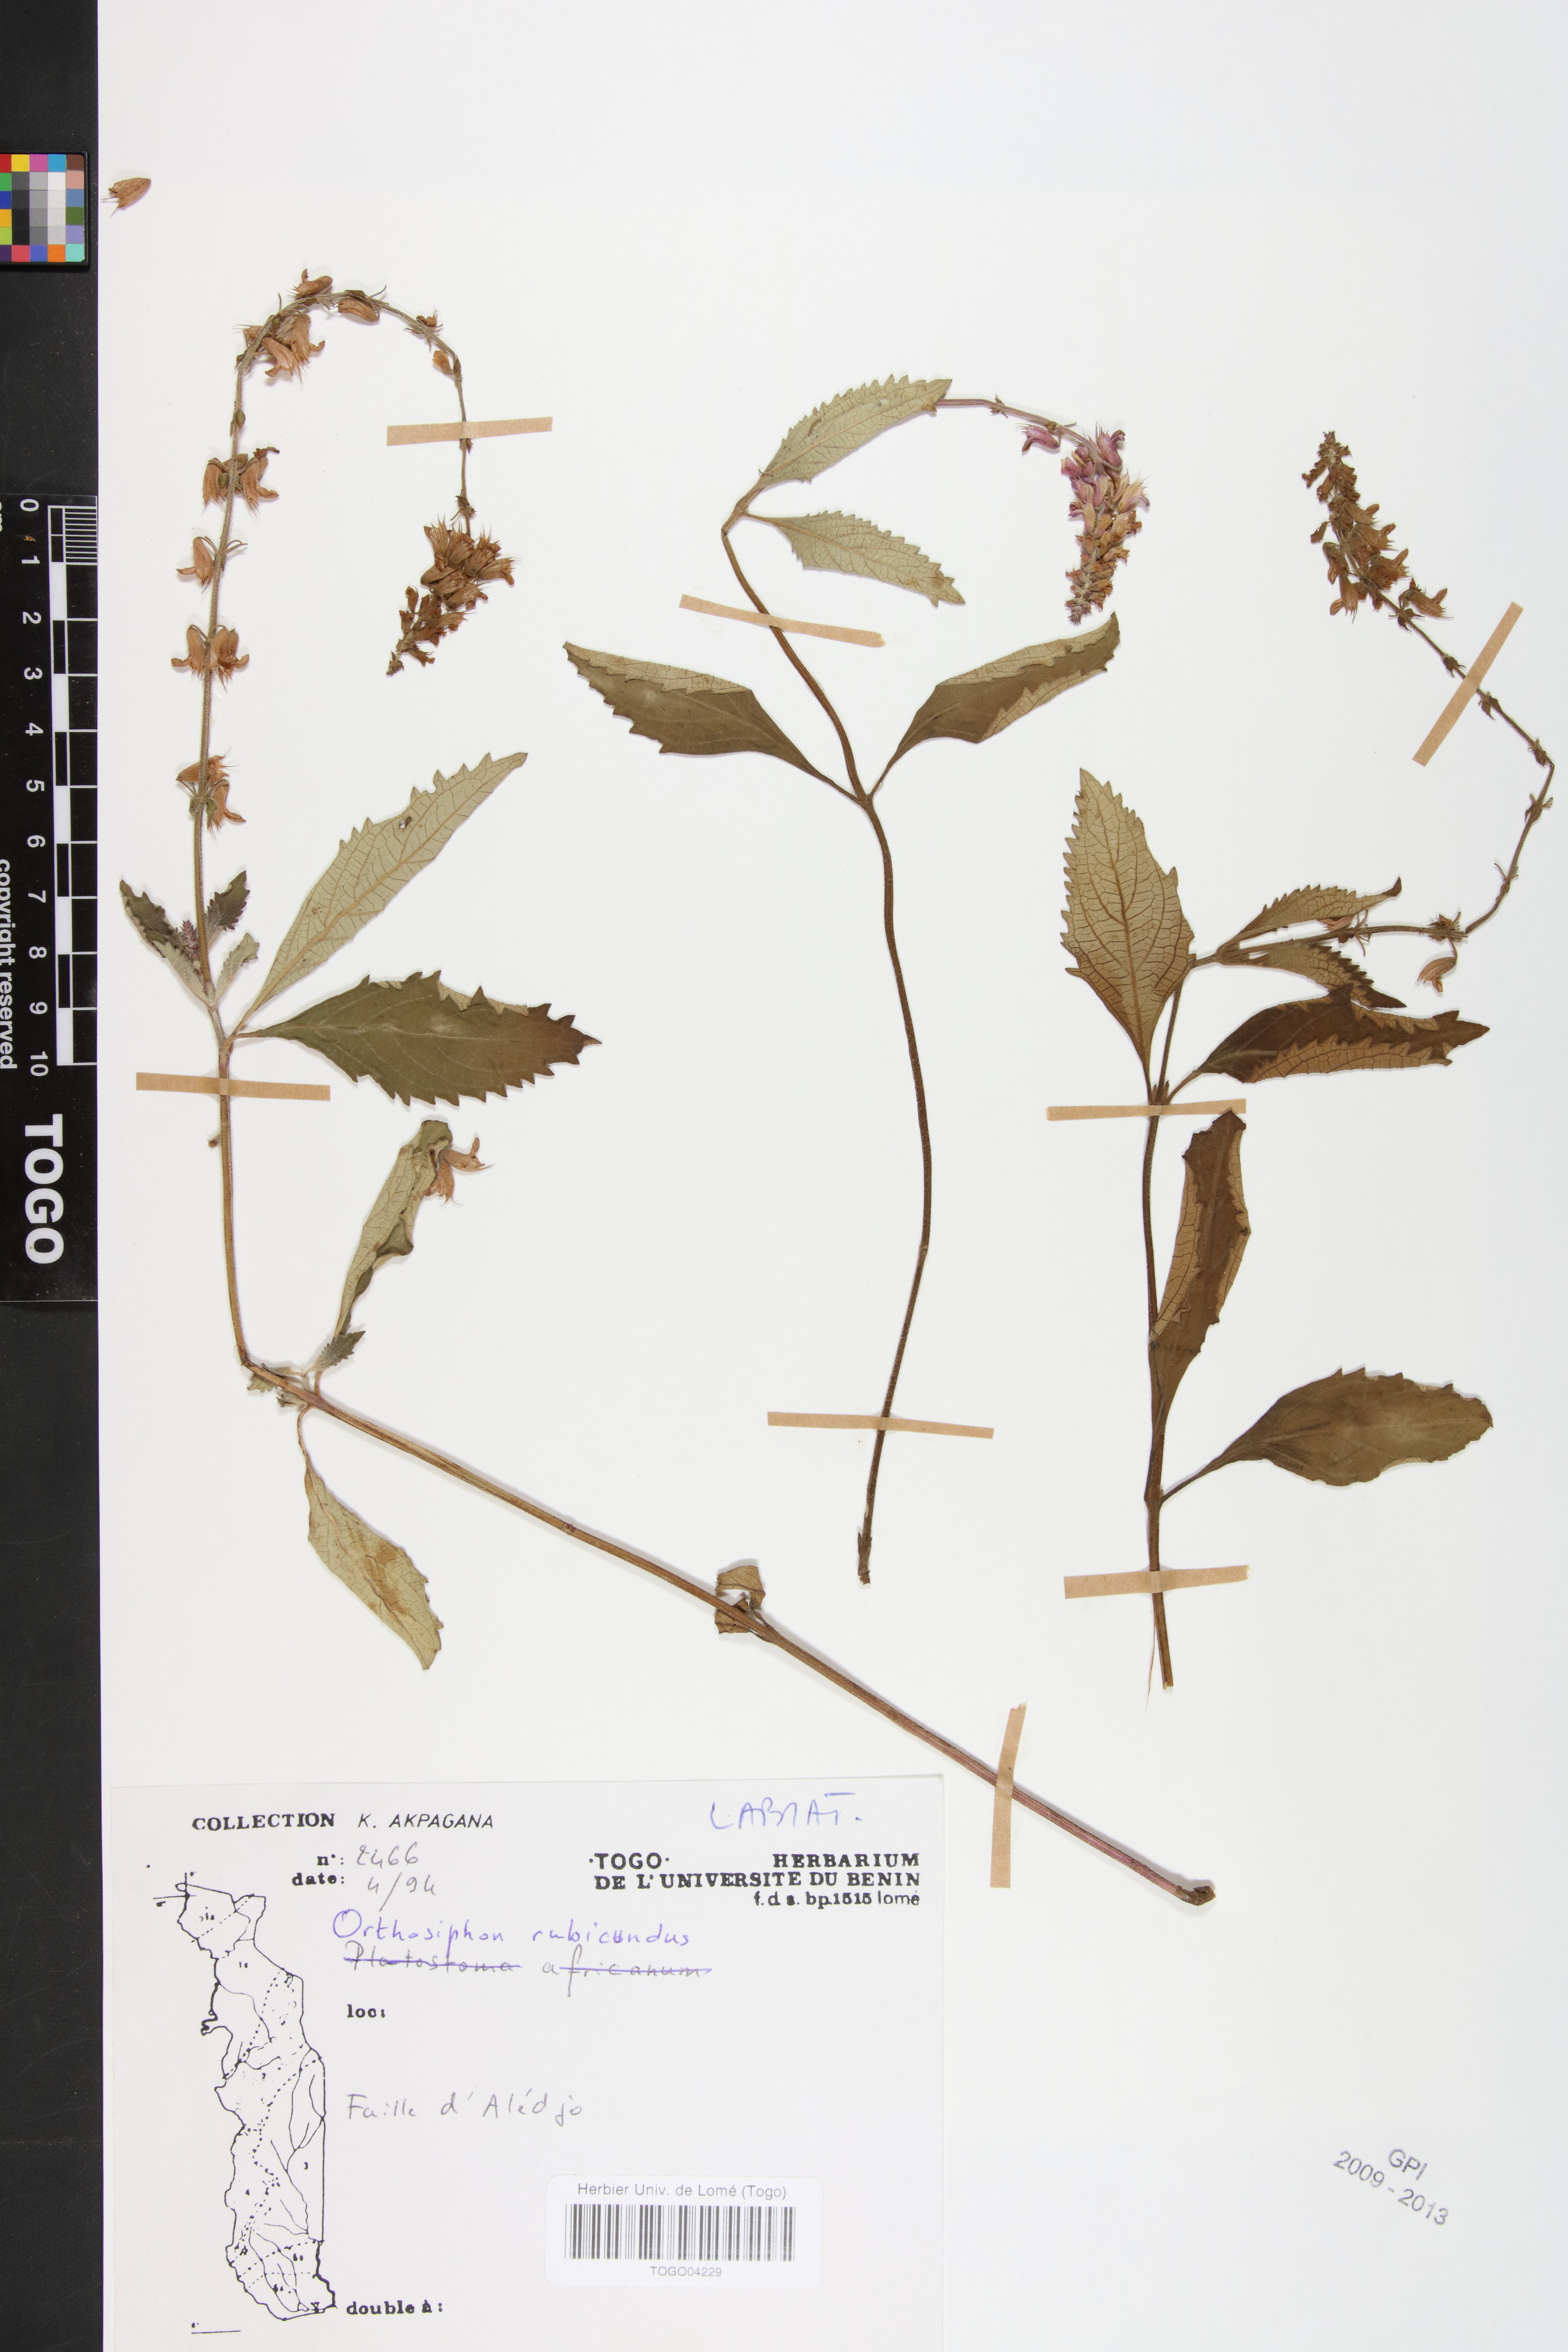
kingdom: Plantae
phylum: Tracheophyta
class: Magnoliopsida
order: Lamiales
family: Lamiaceae
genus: Orthosiphon
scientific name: Orthosiphon rubicundus
